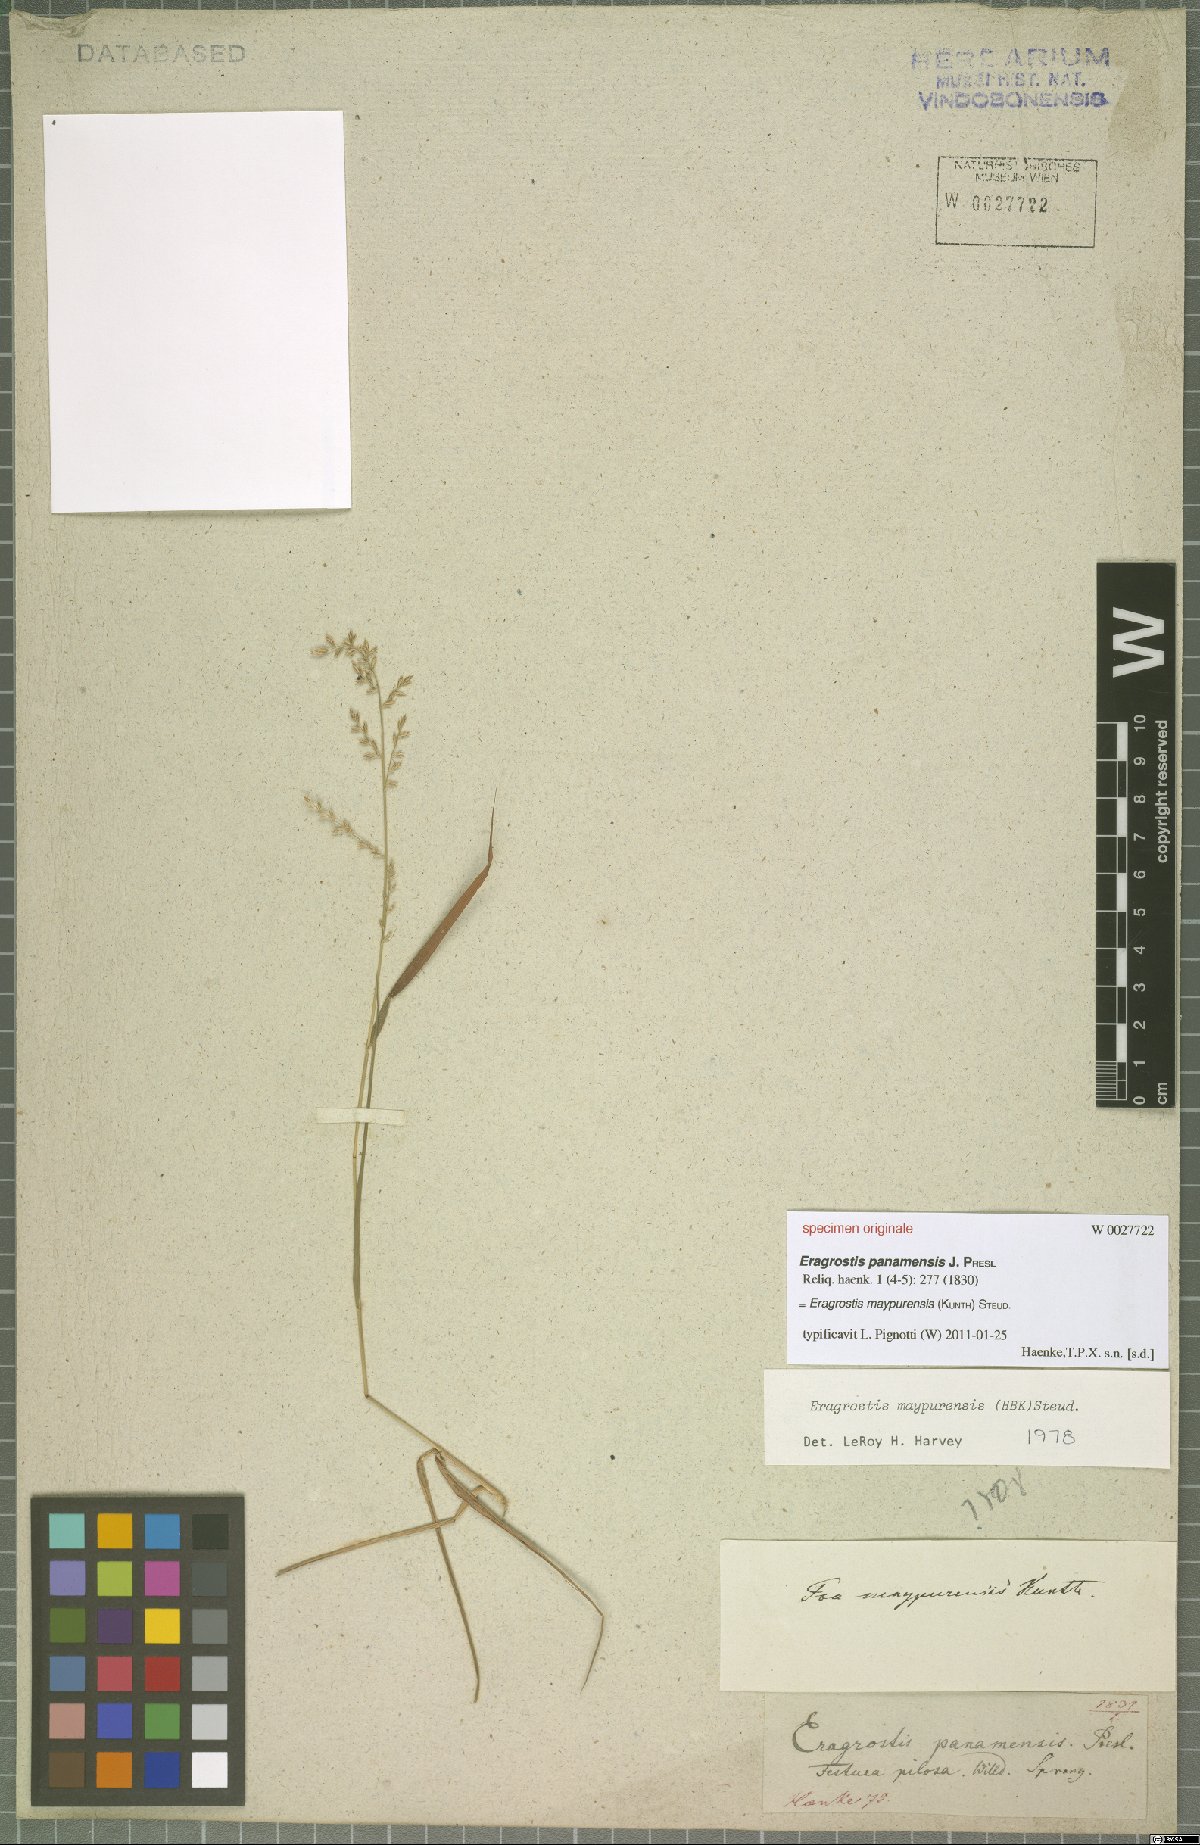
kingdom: Plantae
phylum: Tracheophyta
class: Liliopsida
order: Poales
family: Poaceae
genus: Eragrostis
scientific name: Eragrostis maypurensis
